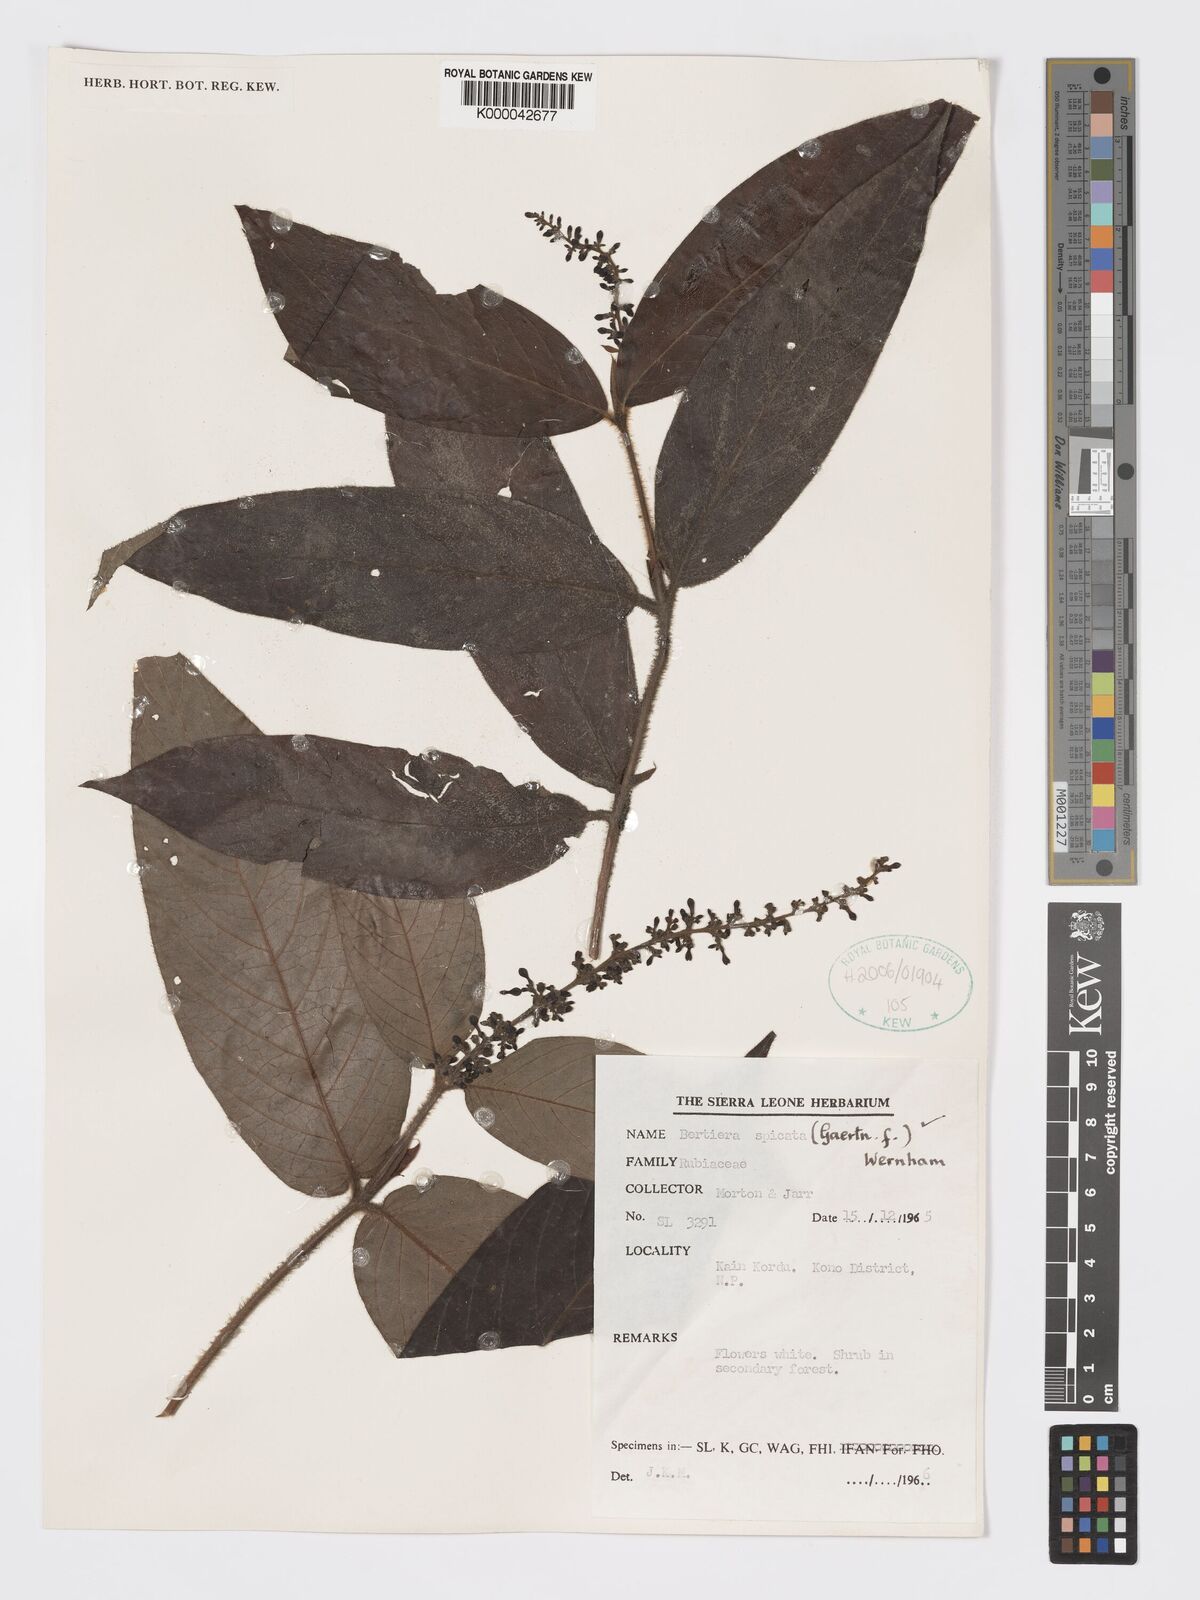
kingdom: Plantae
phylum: Tracheophyta
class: Magnoliopsida
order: Gentianales
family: Rubiaceae
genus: Bertiera
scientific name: Bertiera
